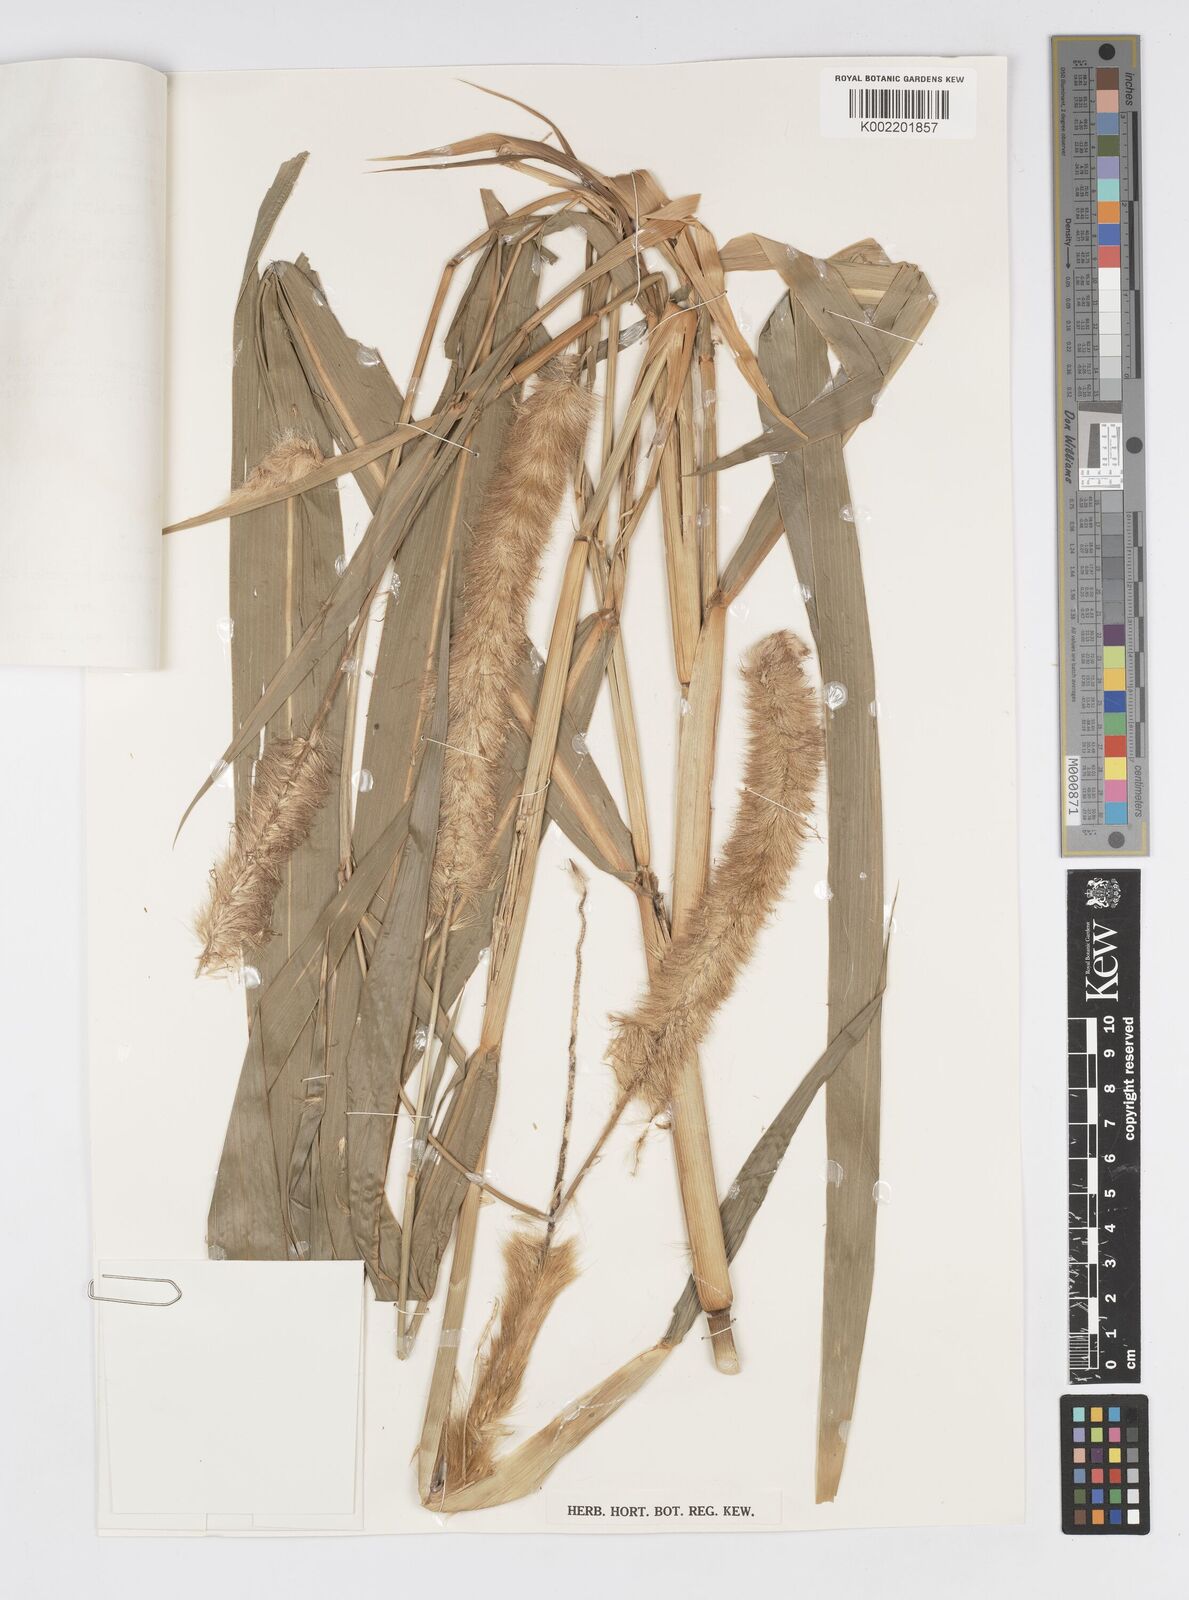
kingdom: Plantae
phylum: Tracheophyta
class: Liliopsida
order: Poales
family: Poaceae
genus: Cenchrus
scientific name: Cenchrus purpureus
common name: Elephant grass
